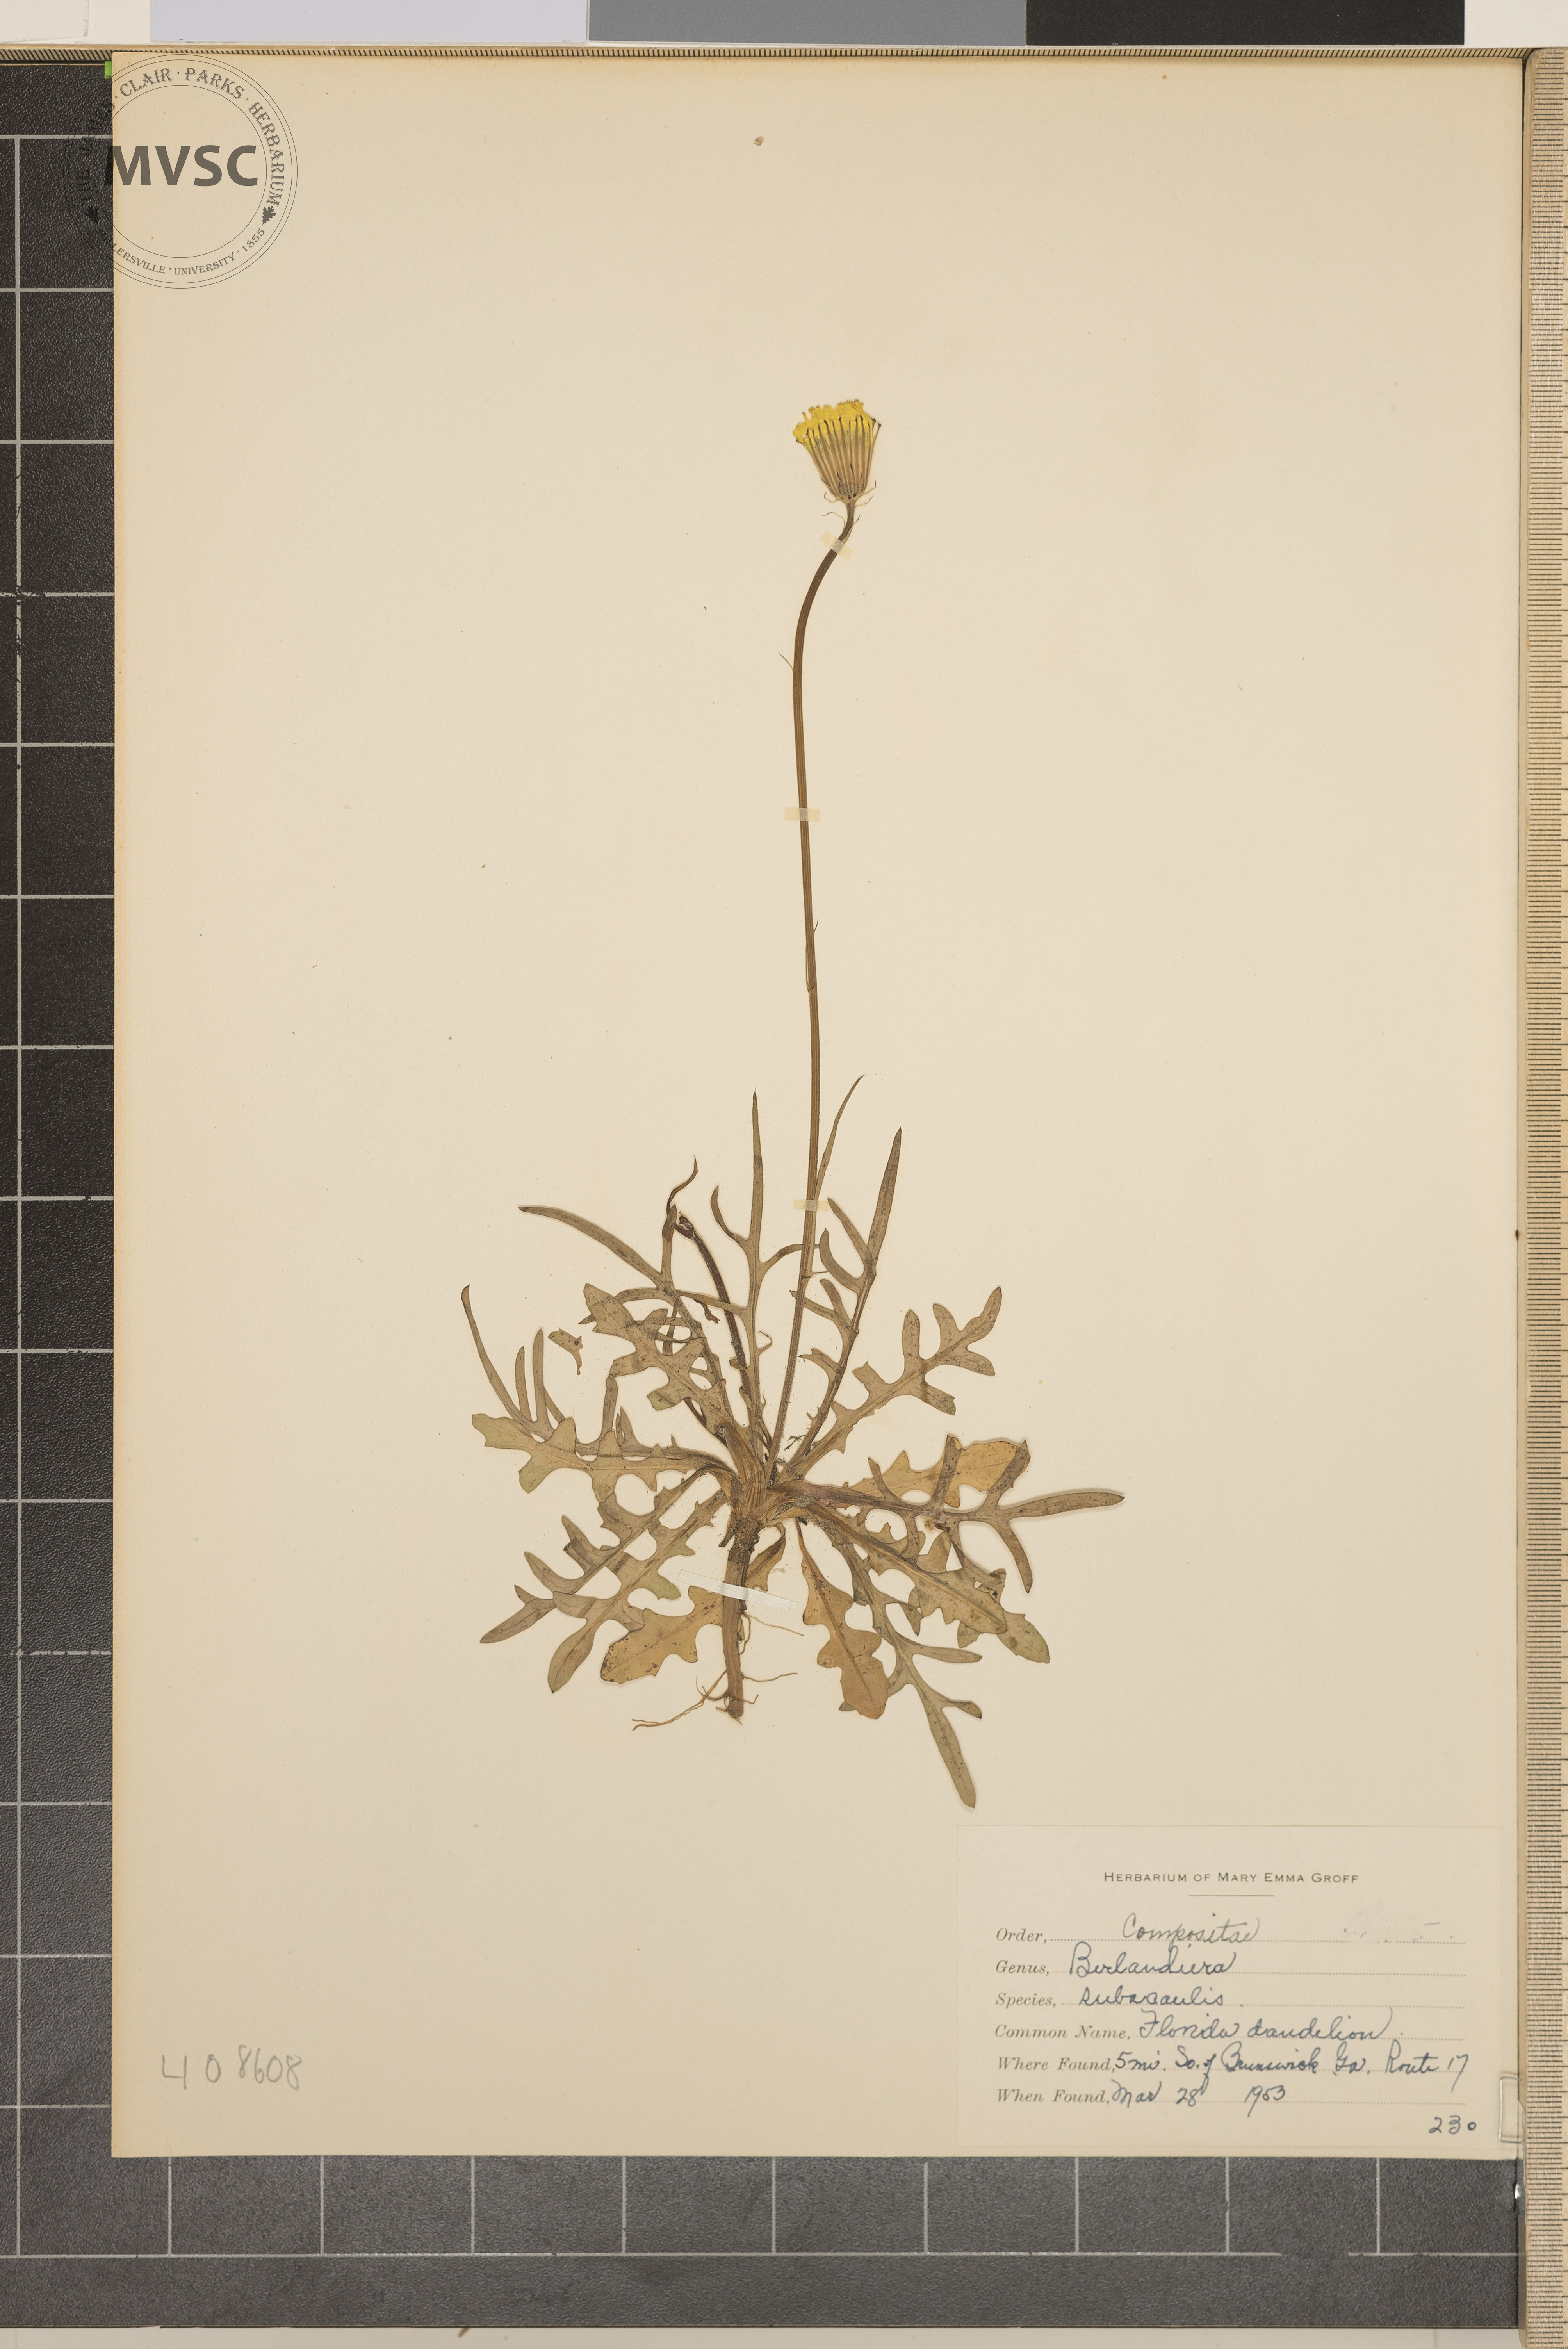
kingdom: Plantae
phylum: Tracheophyta
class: Magnoliopsida
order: Asterales
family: Asteraceae
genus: Berlandiera
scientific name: Berlandiera subacaulis
